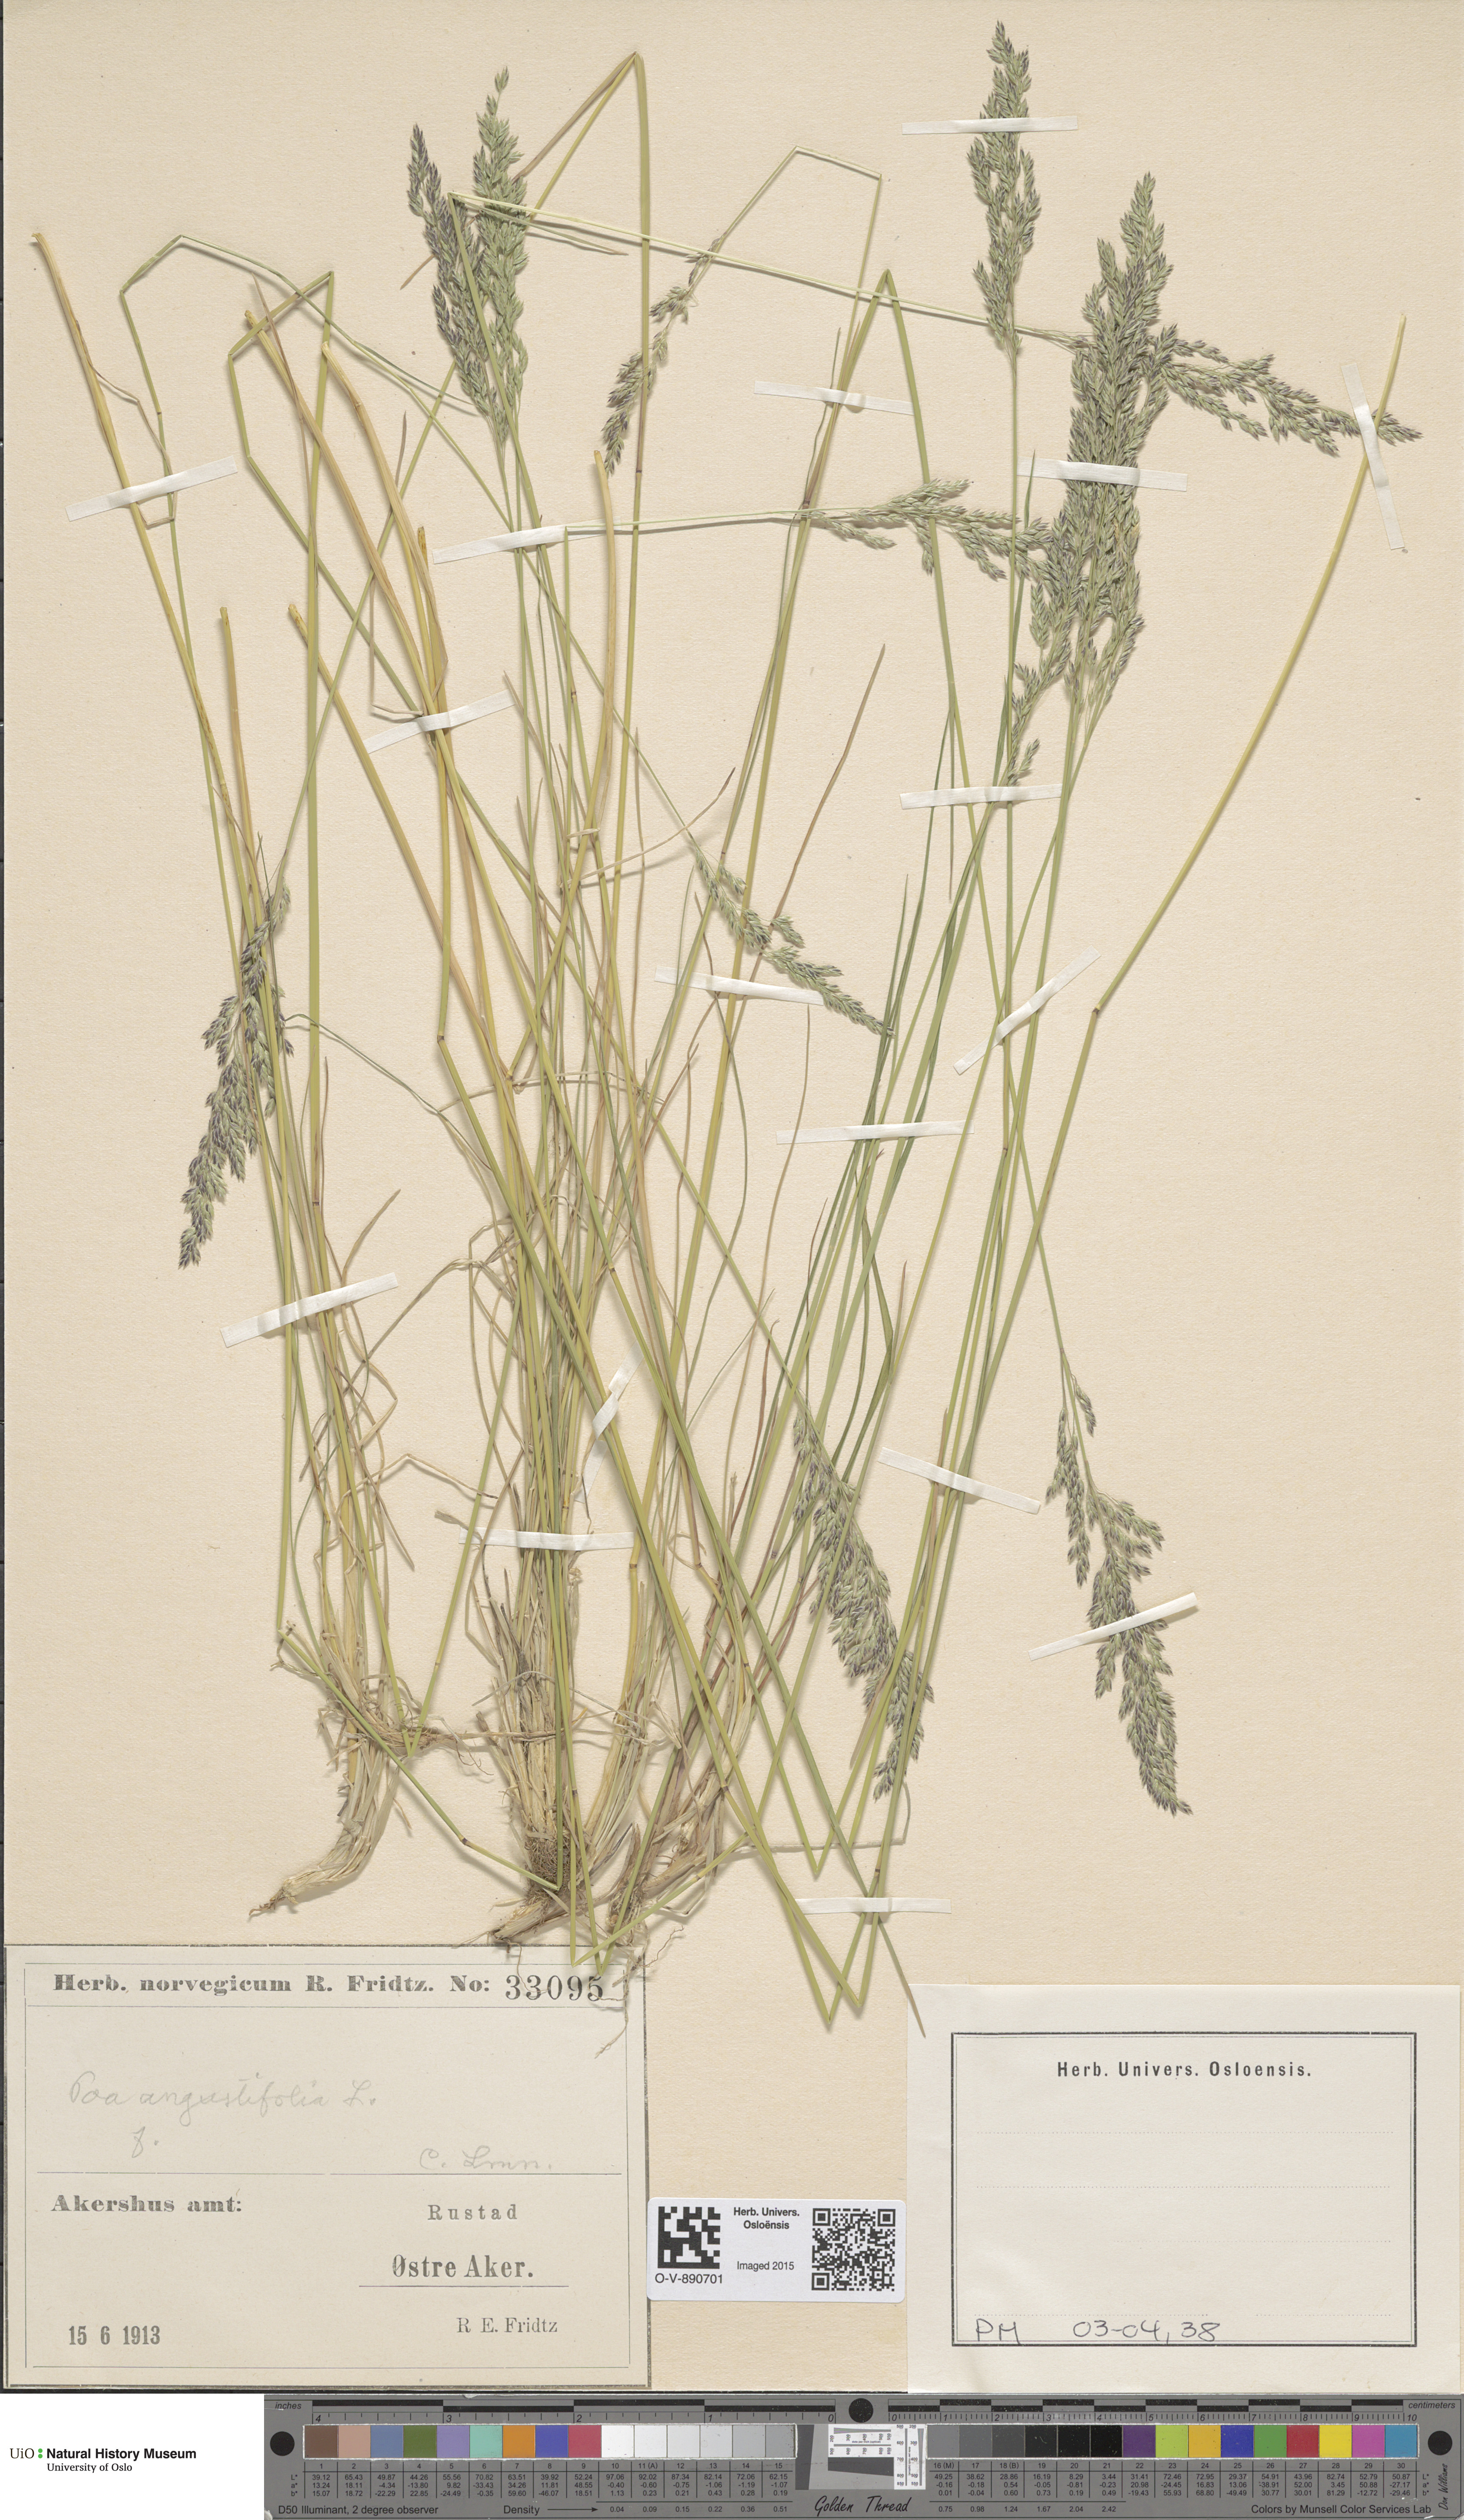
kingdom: Plantae
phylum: Tracheophyta
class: Liliopsida
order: Poales
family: Poaceae
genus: Poa
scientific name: Poa angustifolia
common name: Narrow-leaved meadow-grass
